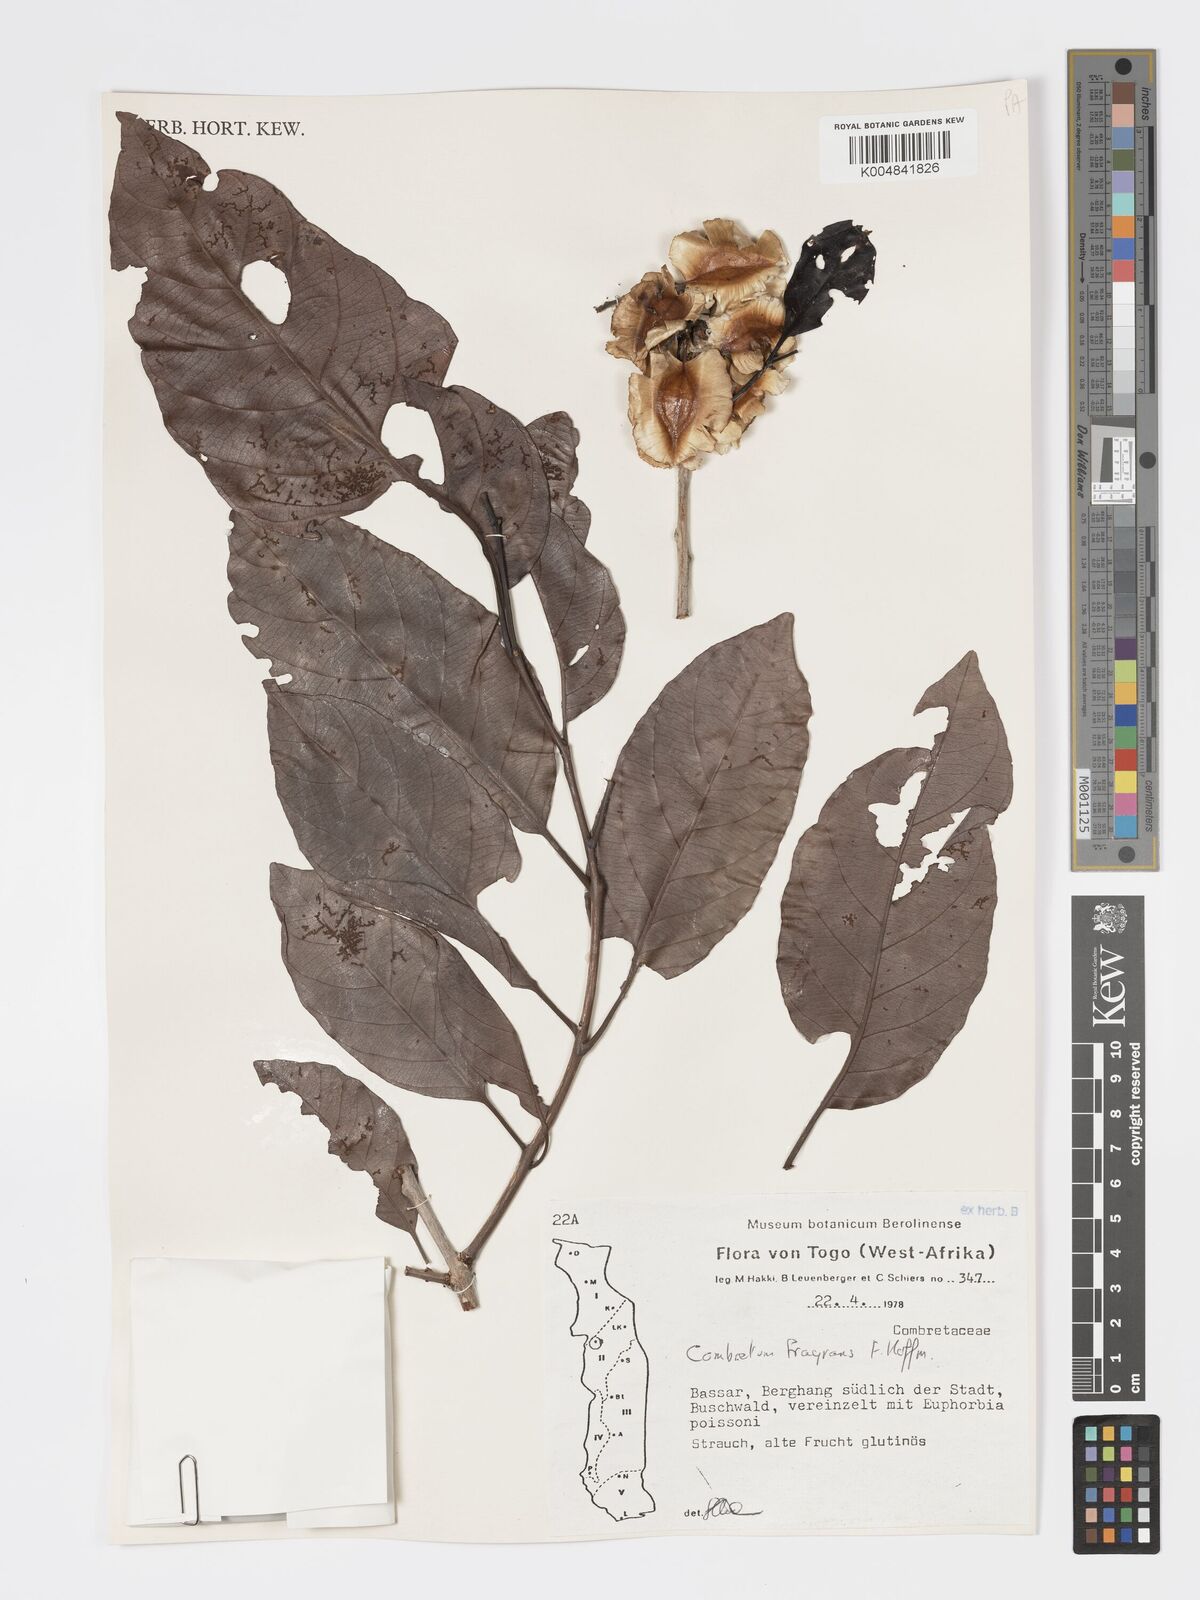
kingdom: Plantae
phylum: Tracheophyta
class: Magnoliopsida
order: Myrtales
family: Combretaceae
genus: Combretum
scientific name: Combretum adenogonium
